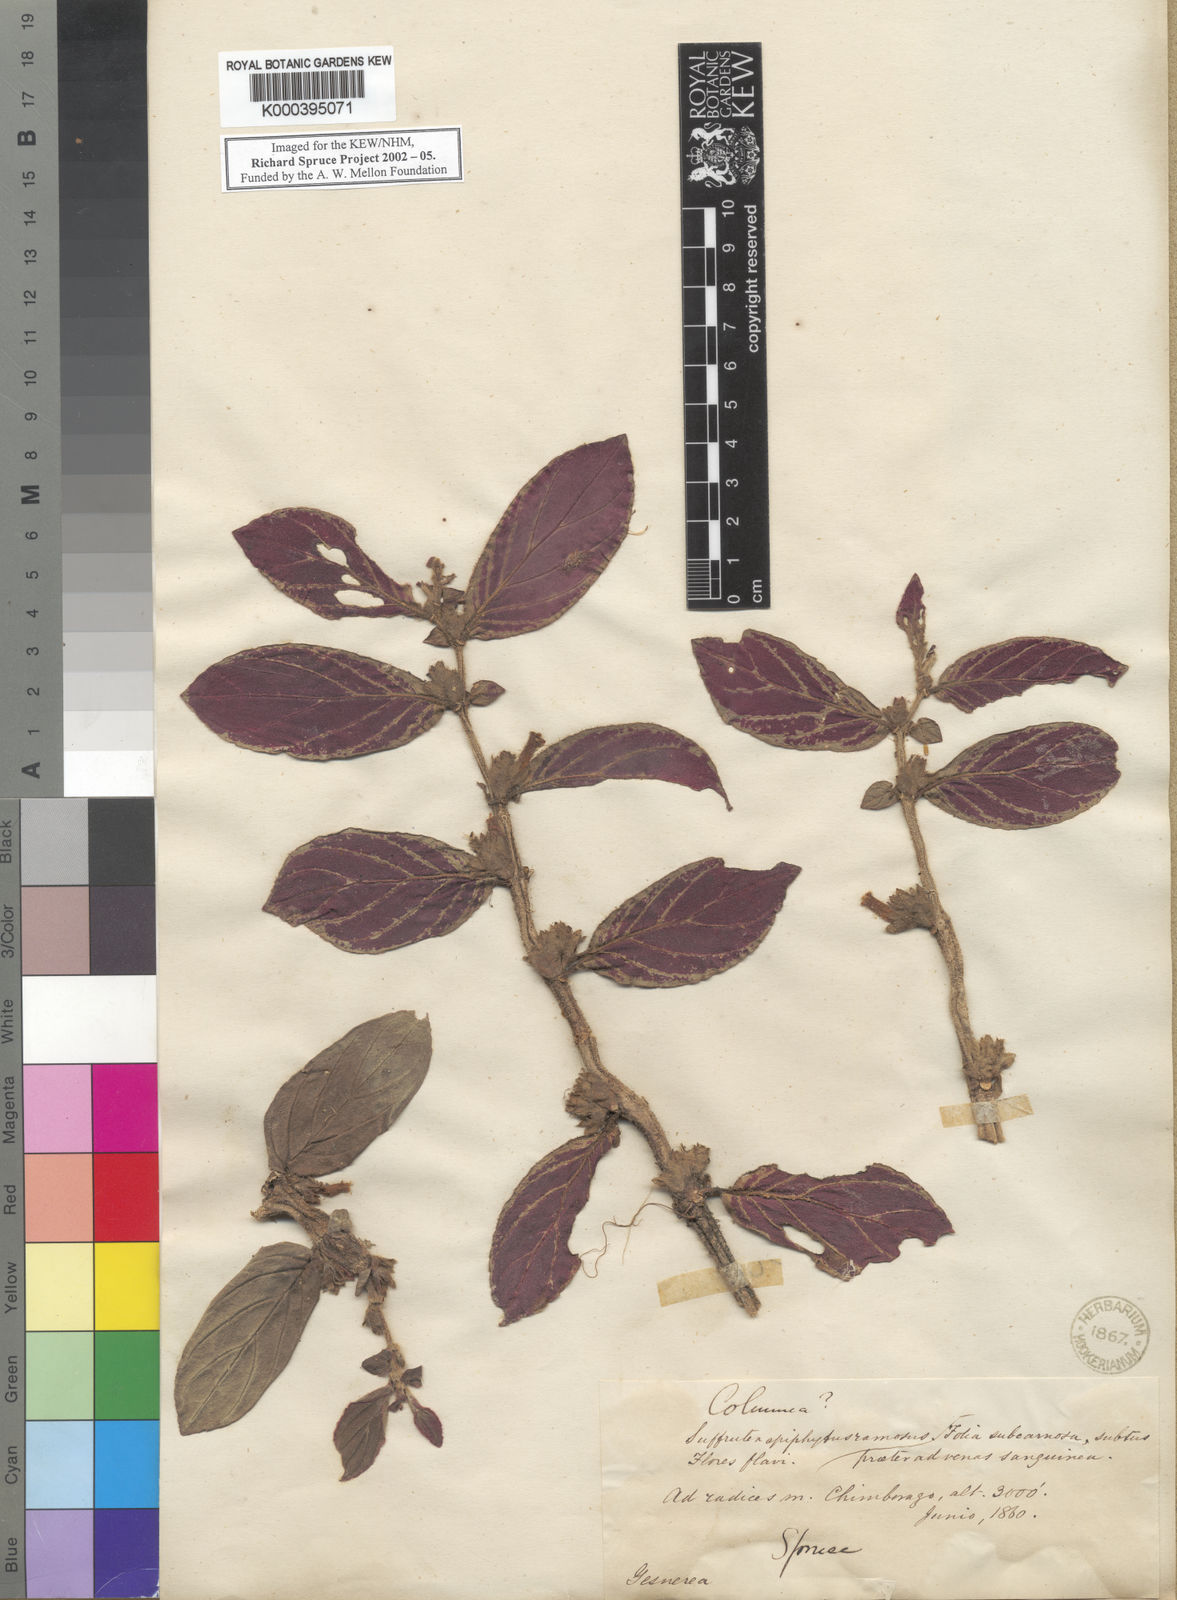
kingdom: Plantae
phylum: Tracheophyta
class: Magnoliopsida
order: Lamiales
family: Gesneriaceae
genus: Columnea
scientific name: Columnea lehmannii
